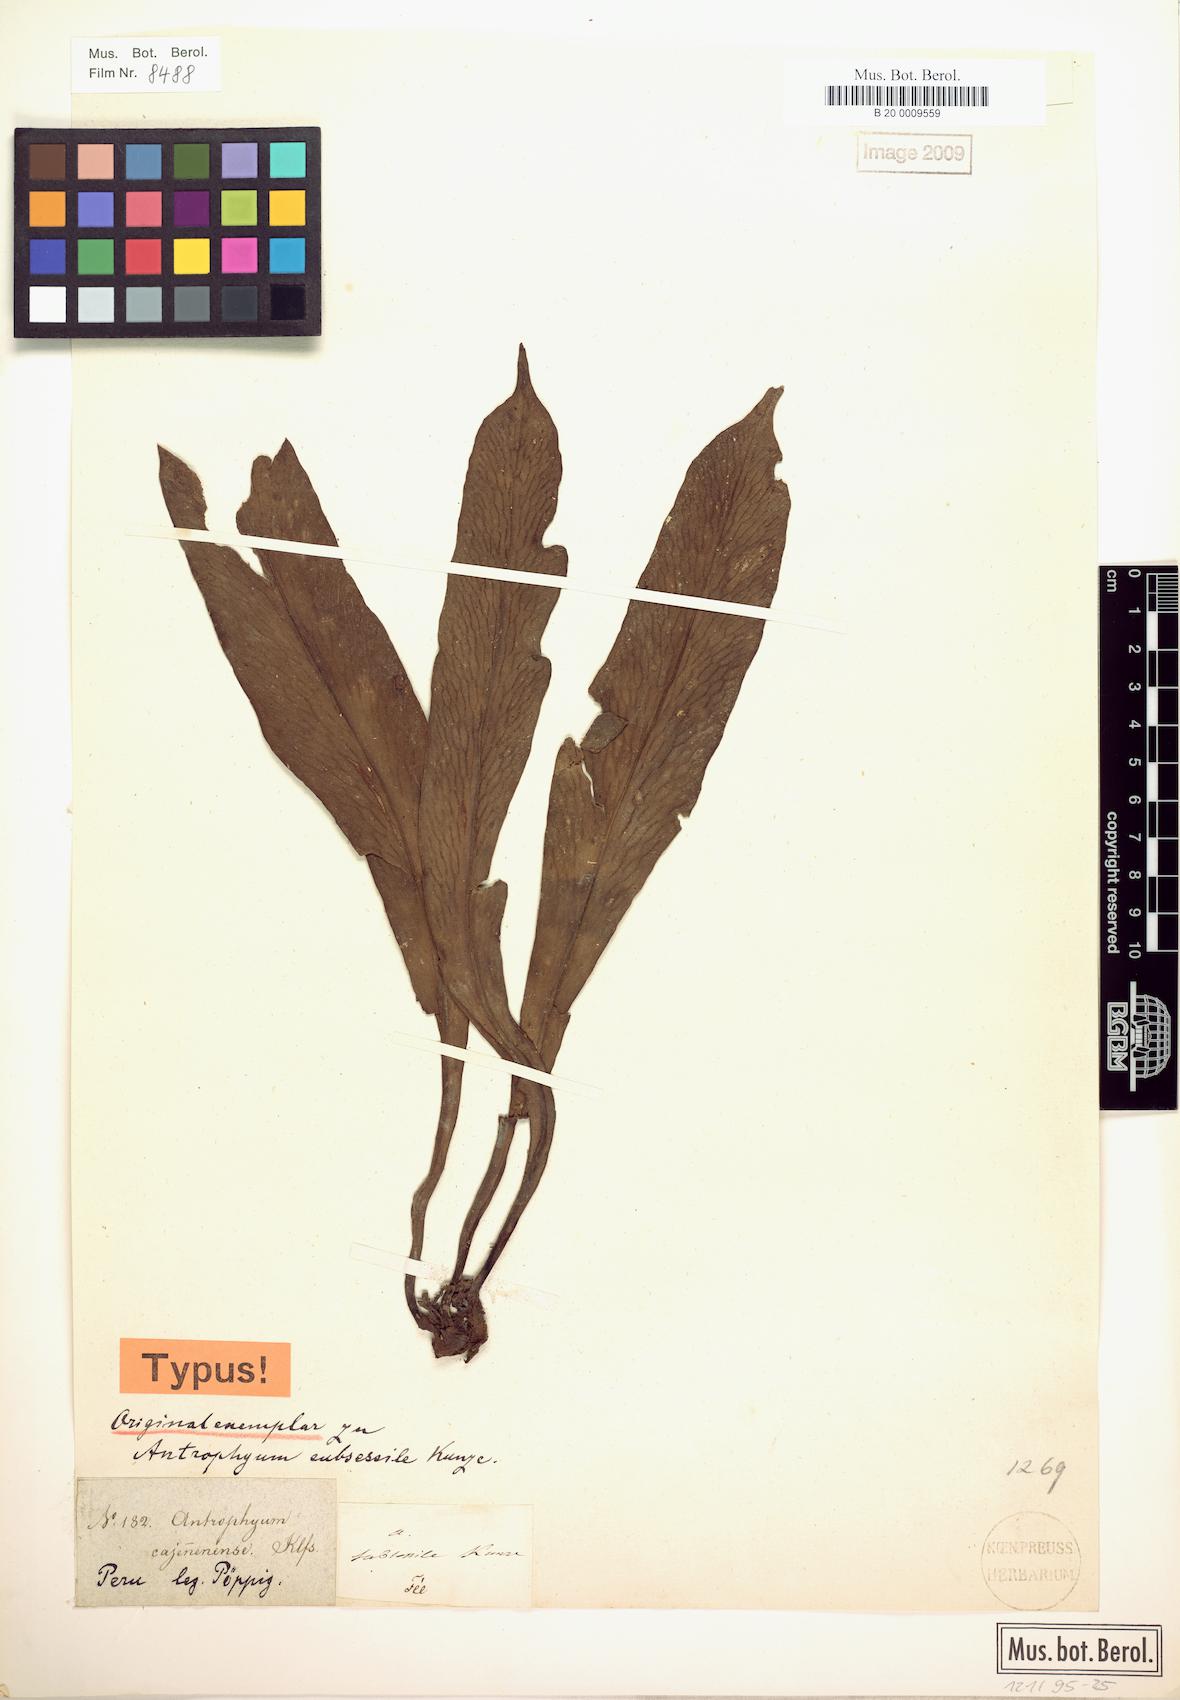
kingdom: Plantae
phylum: Tracheophyta
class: Polypodiopsida
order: Polypodiales
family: Pteridaceae
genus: Polytaenium
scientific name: Polytaenium cajenense
